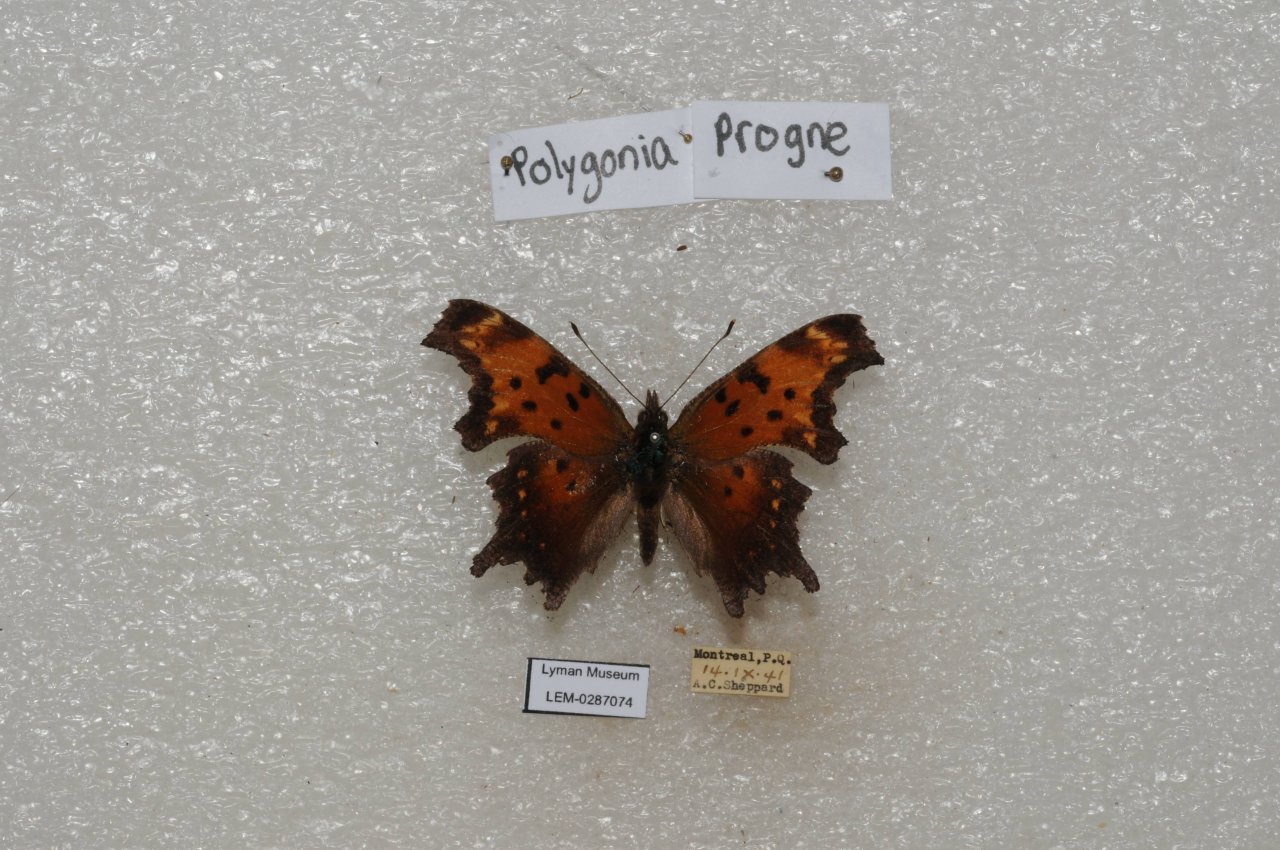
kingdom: Animalia
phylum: Arthropoda
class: Insecta
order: Lepidoptera
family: Nymphalidae
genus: Polygonia
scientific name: Polygonia progne
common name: Gray Comma
